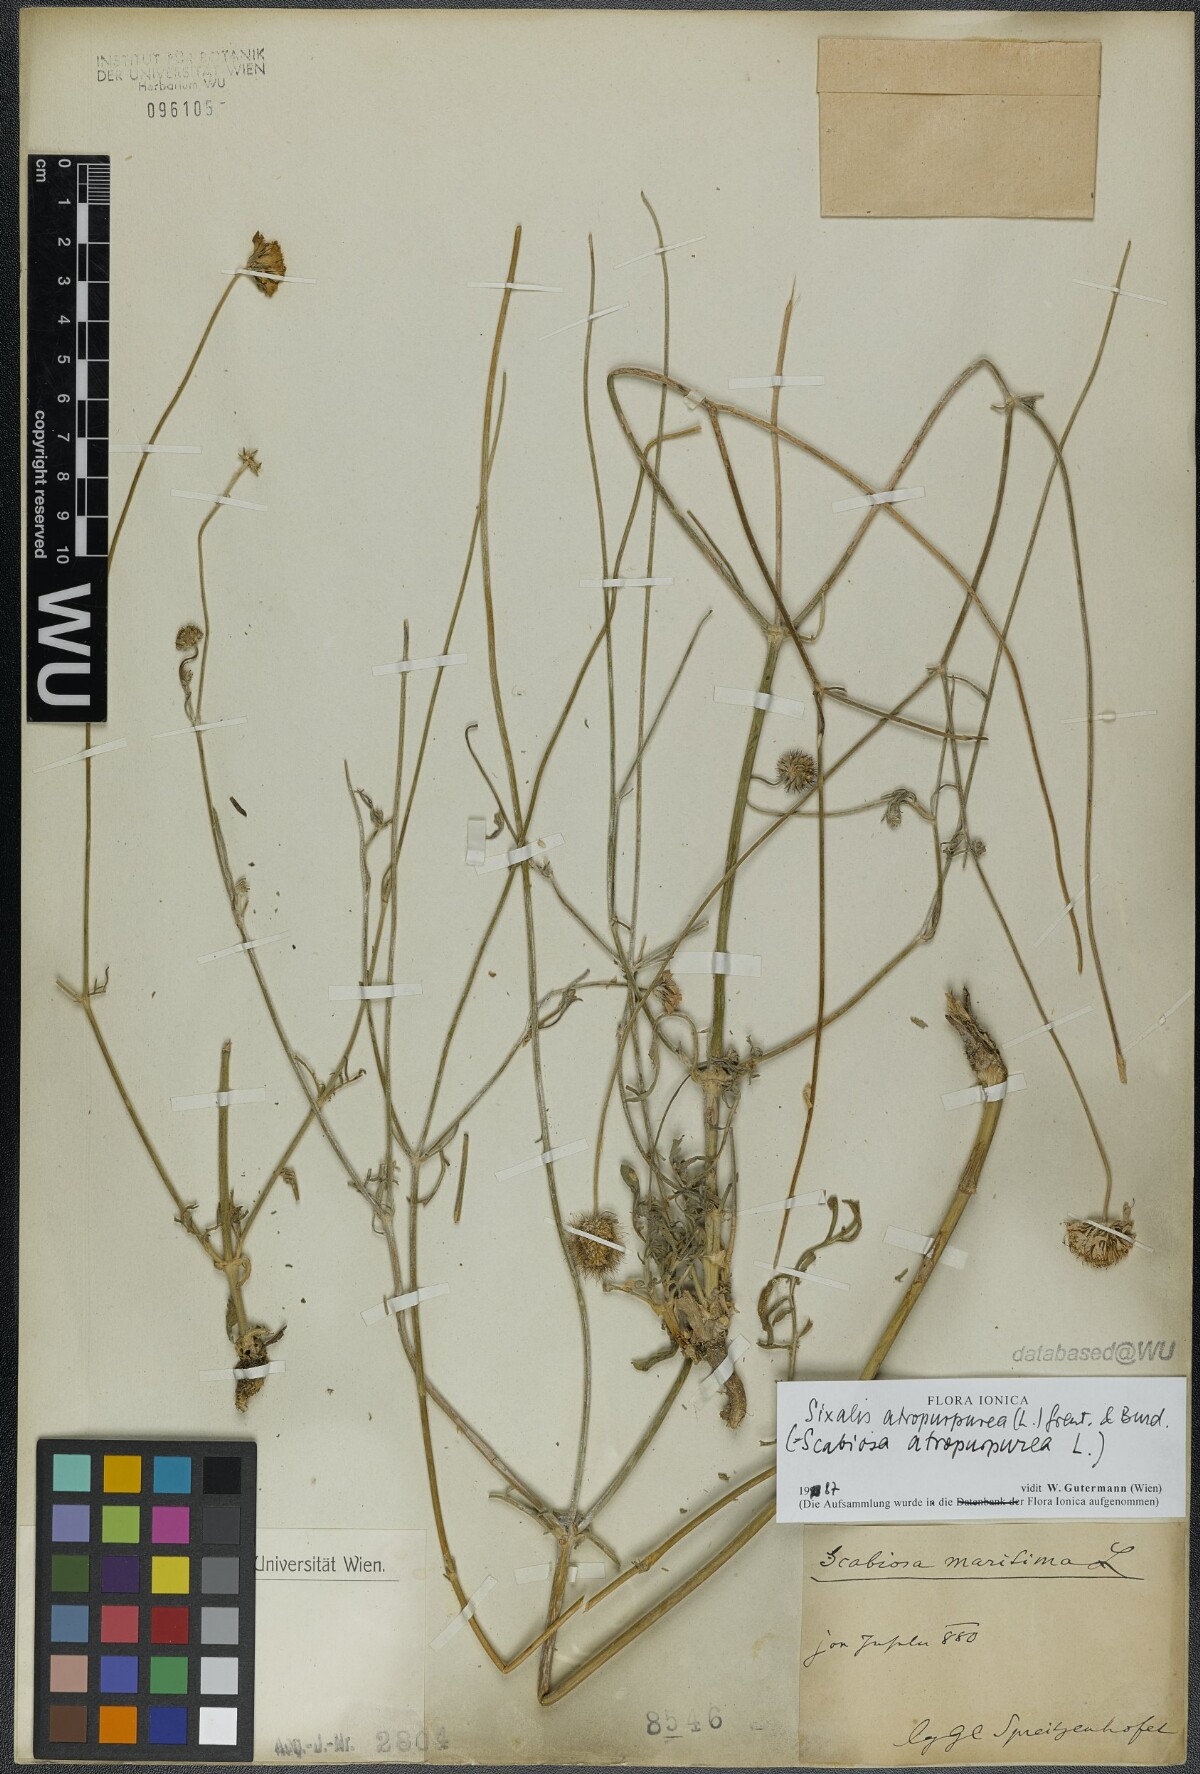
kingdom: Plantae
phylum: Tracheophyta
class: Magnoliopsida
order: Dipsacales
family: Caprifoliaceae
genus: Sixalix
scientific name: Sixalix atropurpurea
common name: Sweet scabious
